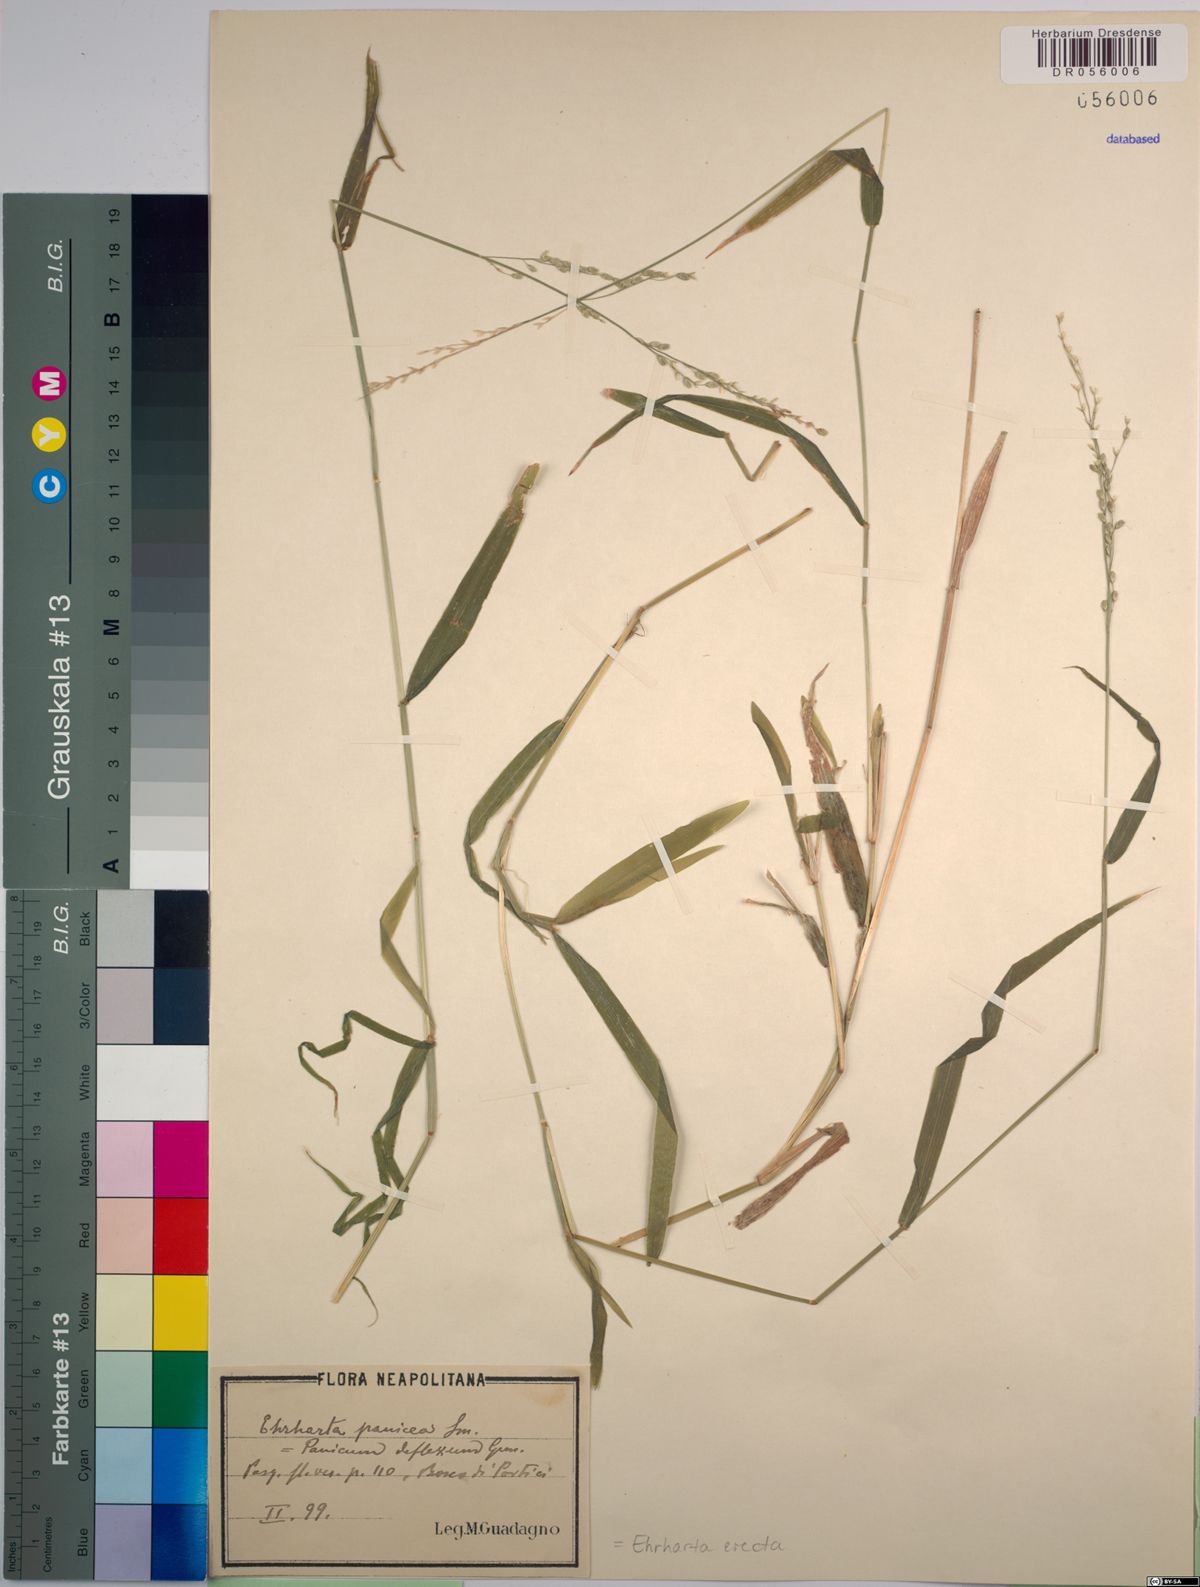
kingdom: Plantae
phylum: Tracheophyta
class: Liliopsida
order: Poales
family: Poaceae
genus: Ehrharta
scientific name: Ehrharta erecta
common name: Panic veldtgrass
